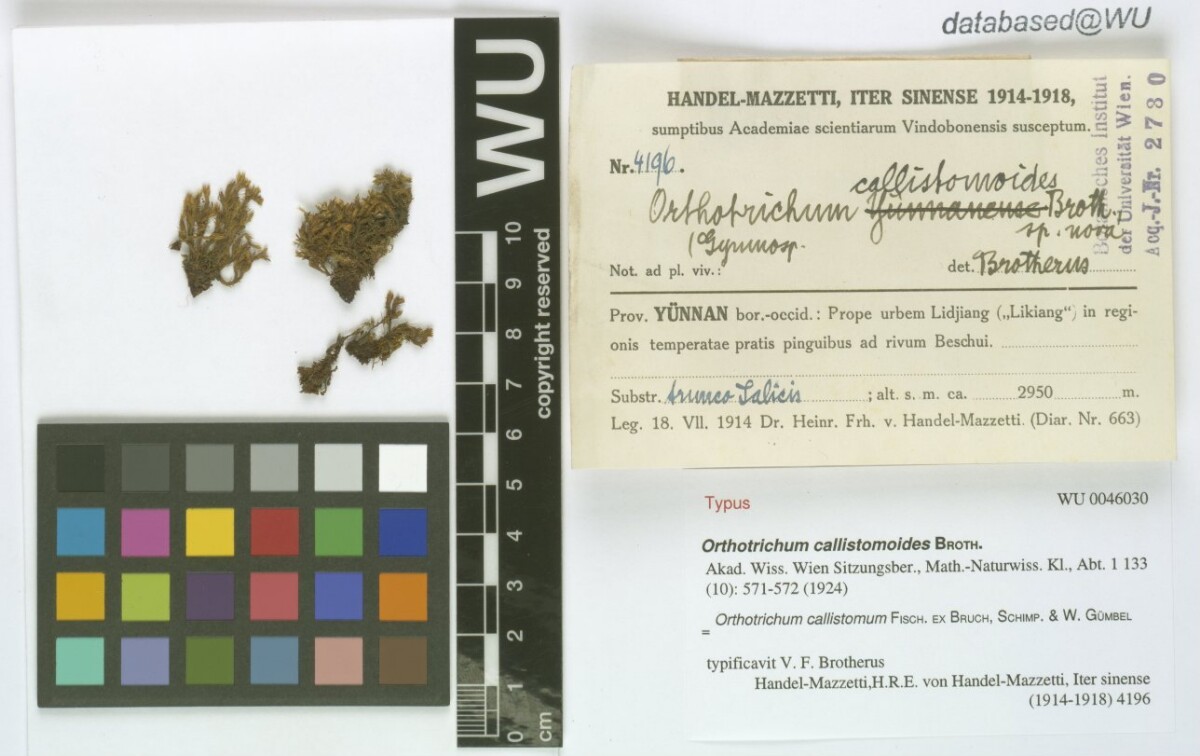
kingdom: Plantae
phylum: Bryophyta
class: Bryopsida
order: Orthotrichales
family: Orthotrichaceae
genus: Orthotrichum
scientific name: Orthotrichum callistomum
